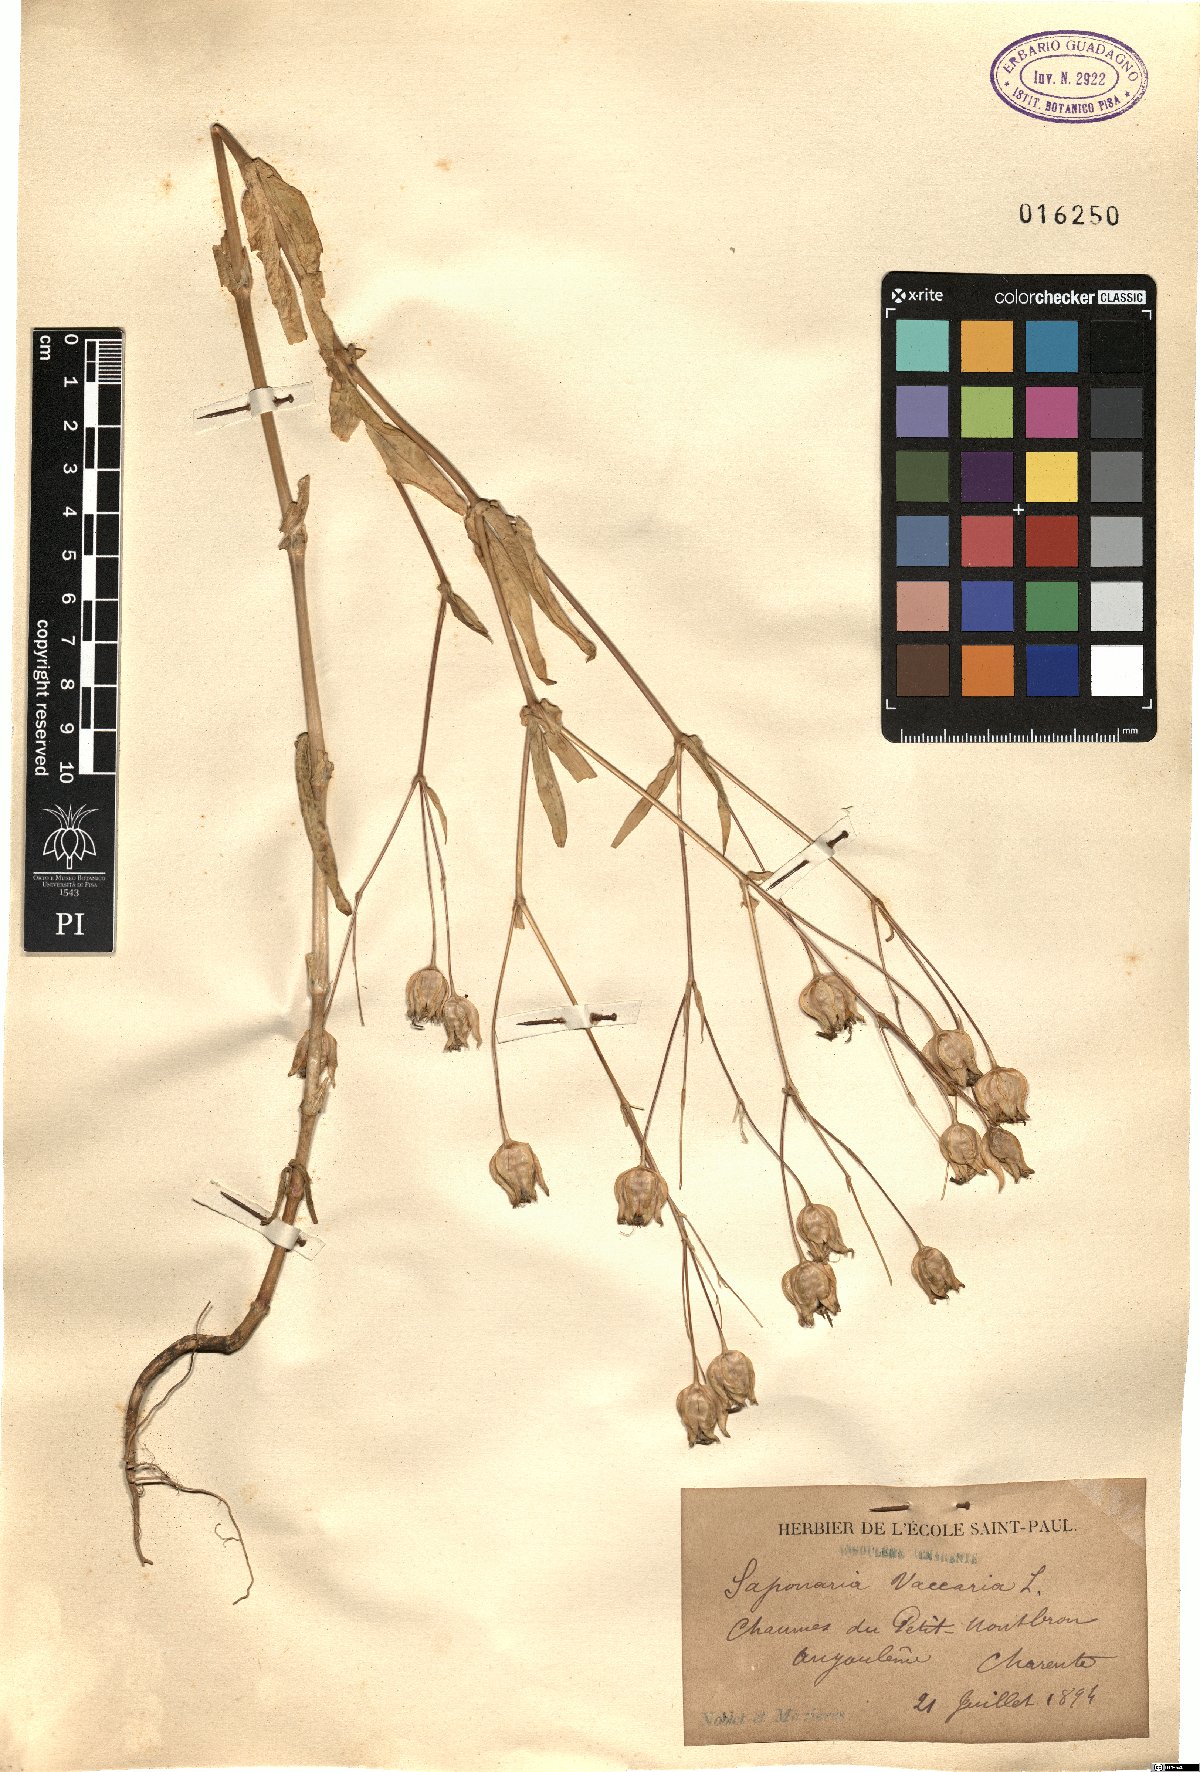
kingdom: Plantae
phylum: Tracheophyta
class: Magnoliopsida
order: Caryophyllales
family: Caryophyllaceae
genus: Gypsophila
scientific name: Gypsophila vaccaria
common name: Cow soapwort
